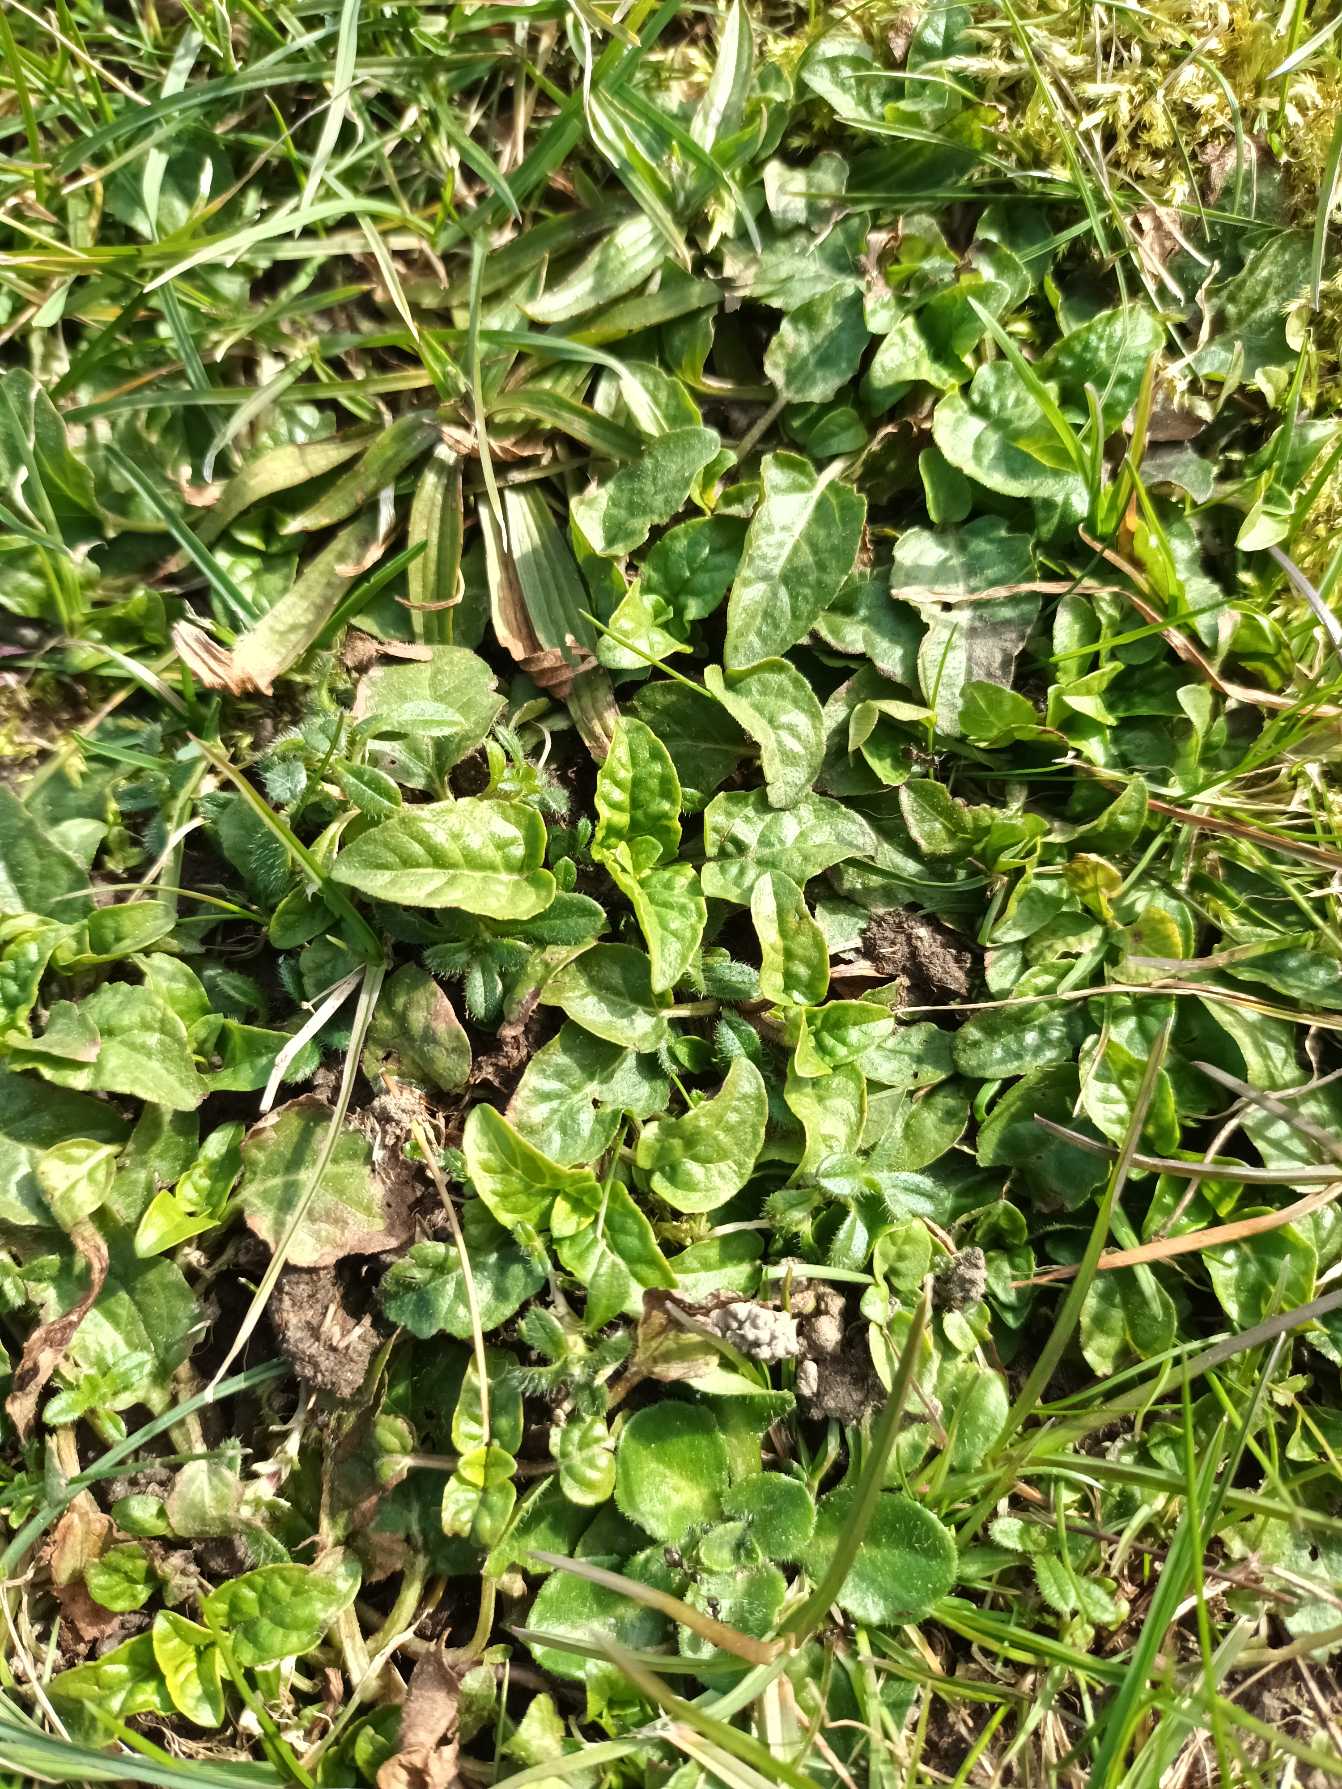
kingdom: Plantae
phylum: Tracheophyta
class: Magnoliopsida
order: Lamiales
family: Lamiaceae
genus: Prunella
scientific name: Prunella vulgaris
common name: Almindelig brunelle
